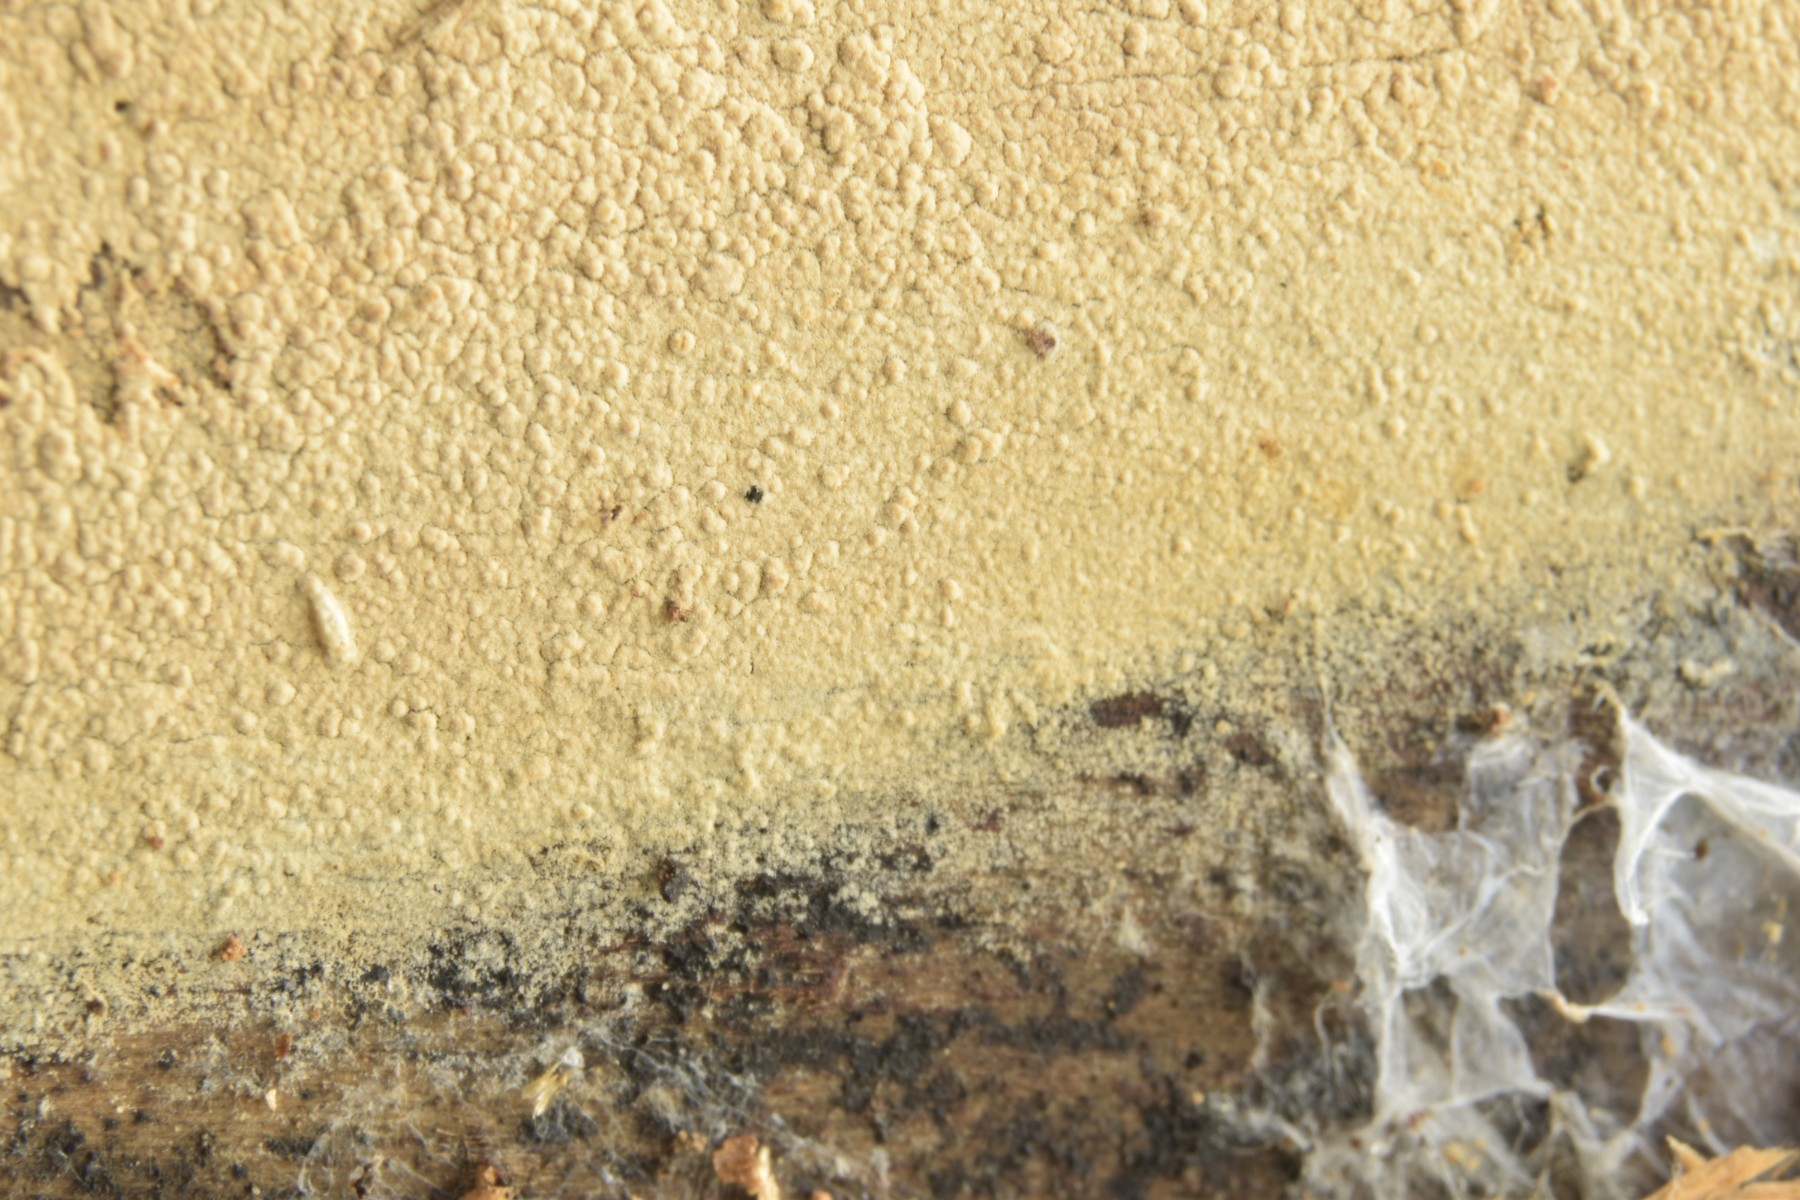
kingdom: Fungi
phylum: Basidiomycota
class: Agaricomycetes
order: Hymenochaetales
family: Hyphodontiaceae
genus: Hyphodontia
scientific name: Hyphodontia alutaria
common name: flaskerenser-nålehinde
